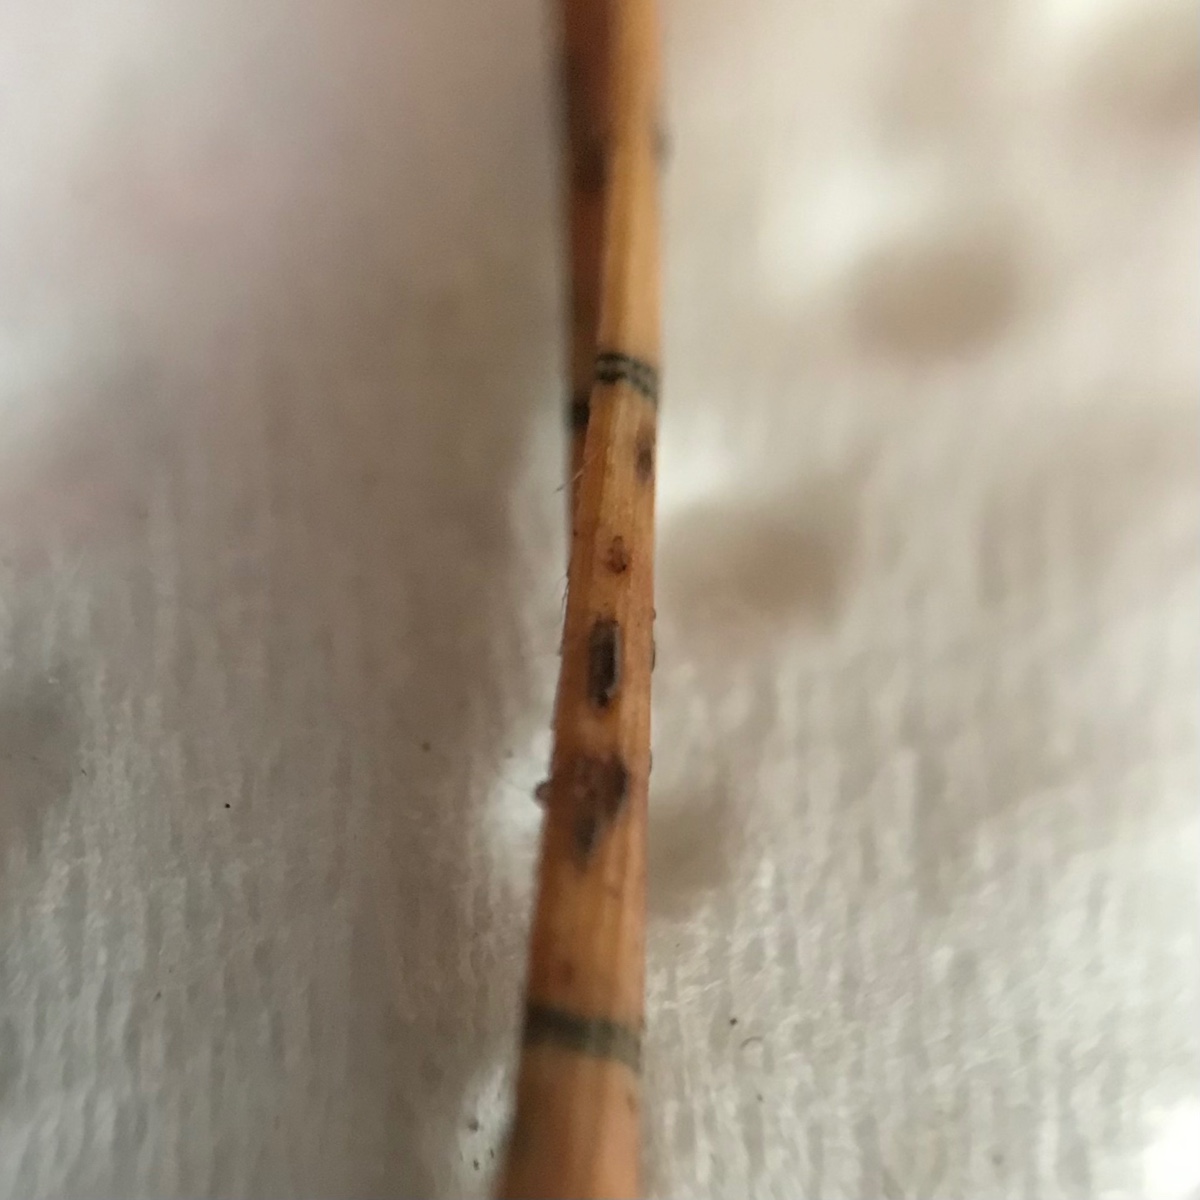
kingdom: Fungi
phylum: Ascomycota
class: Leotiomycetes
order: Rhytismatales
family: Rhytismataceae
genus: Lophodermium
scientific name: Lophodermium pinastri
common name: fyrre-fureplet
